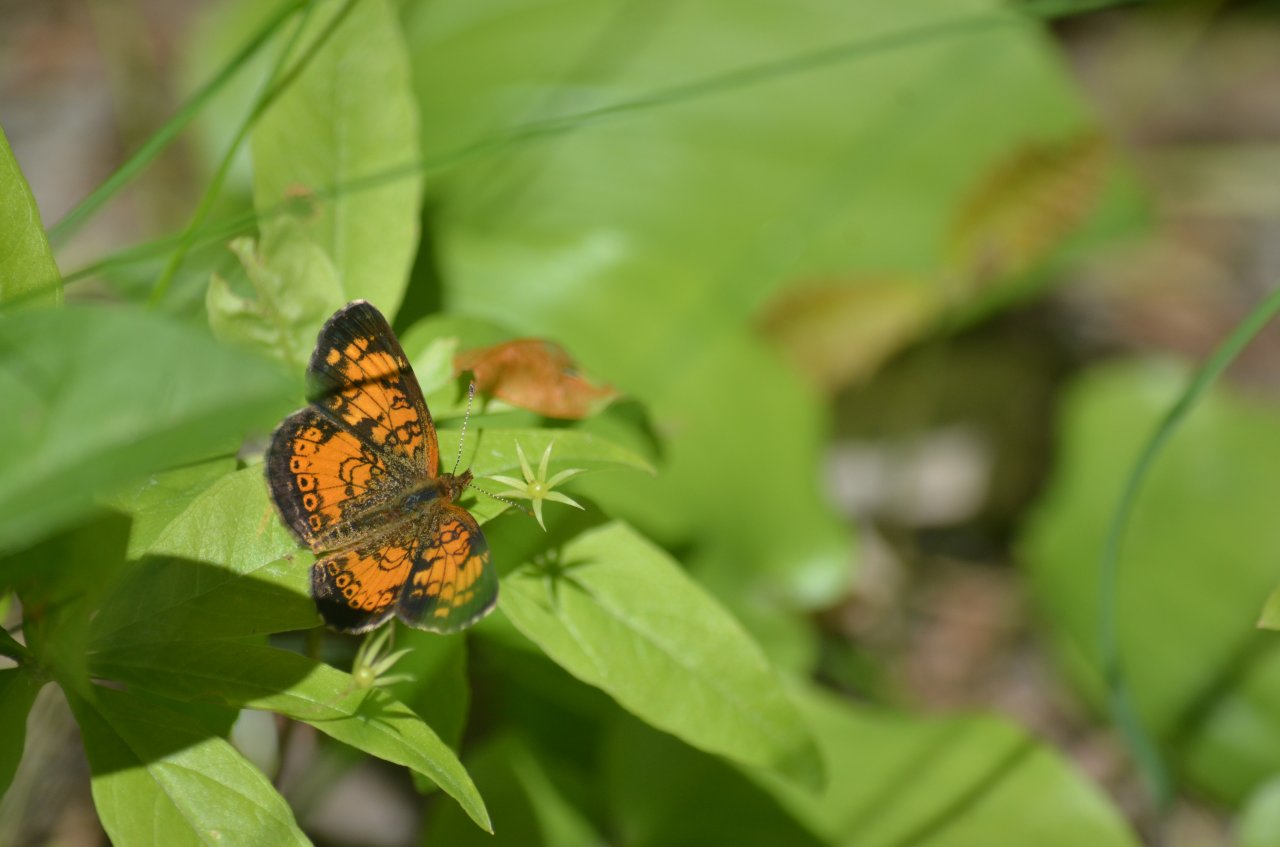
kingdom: Animalia
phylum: Arthropoda
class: Insecta
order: Lepidoptera
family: Nymphalidae
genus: Phyciodes
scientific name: Phyciodes tharos
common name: Northern Crescent
